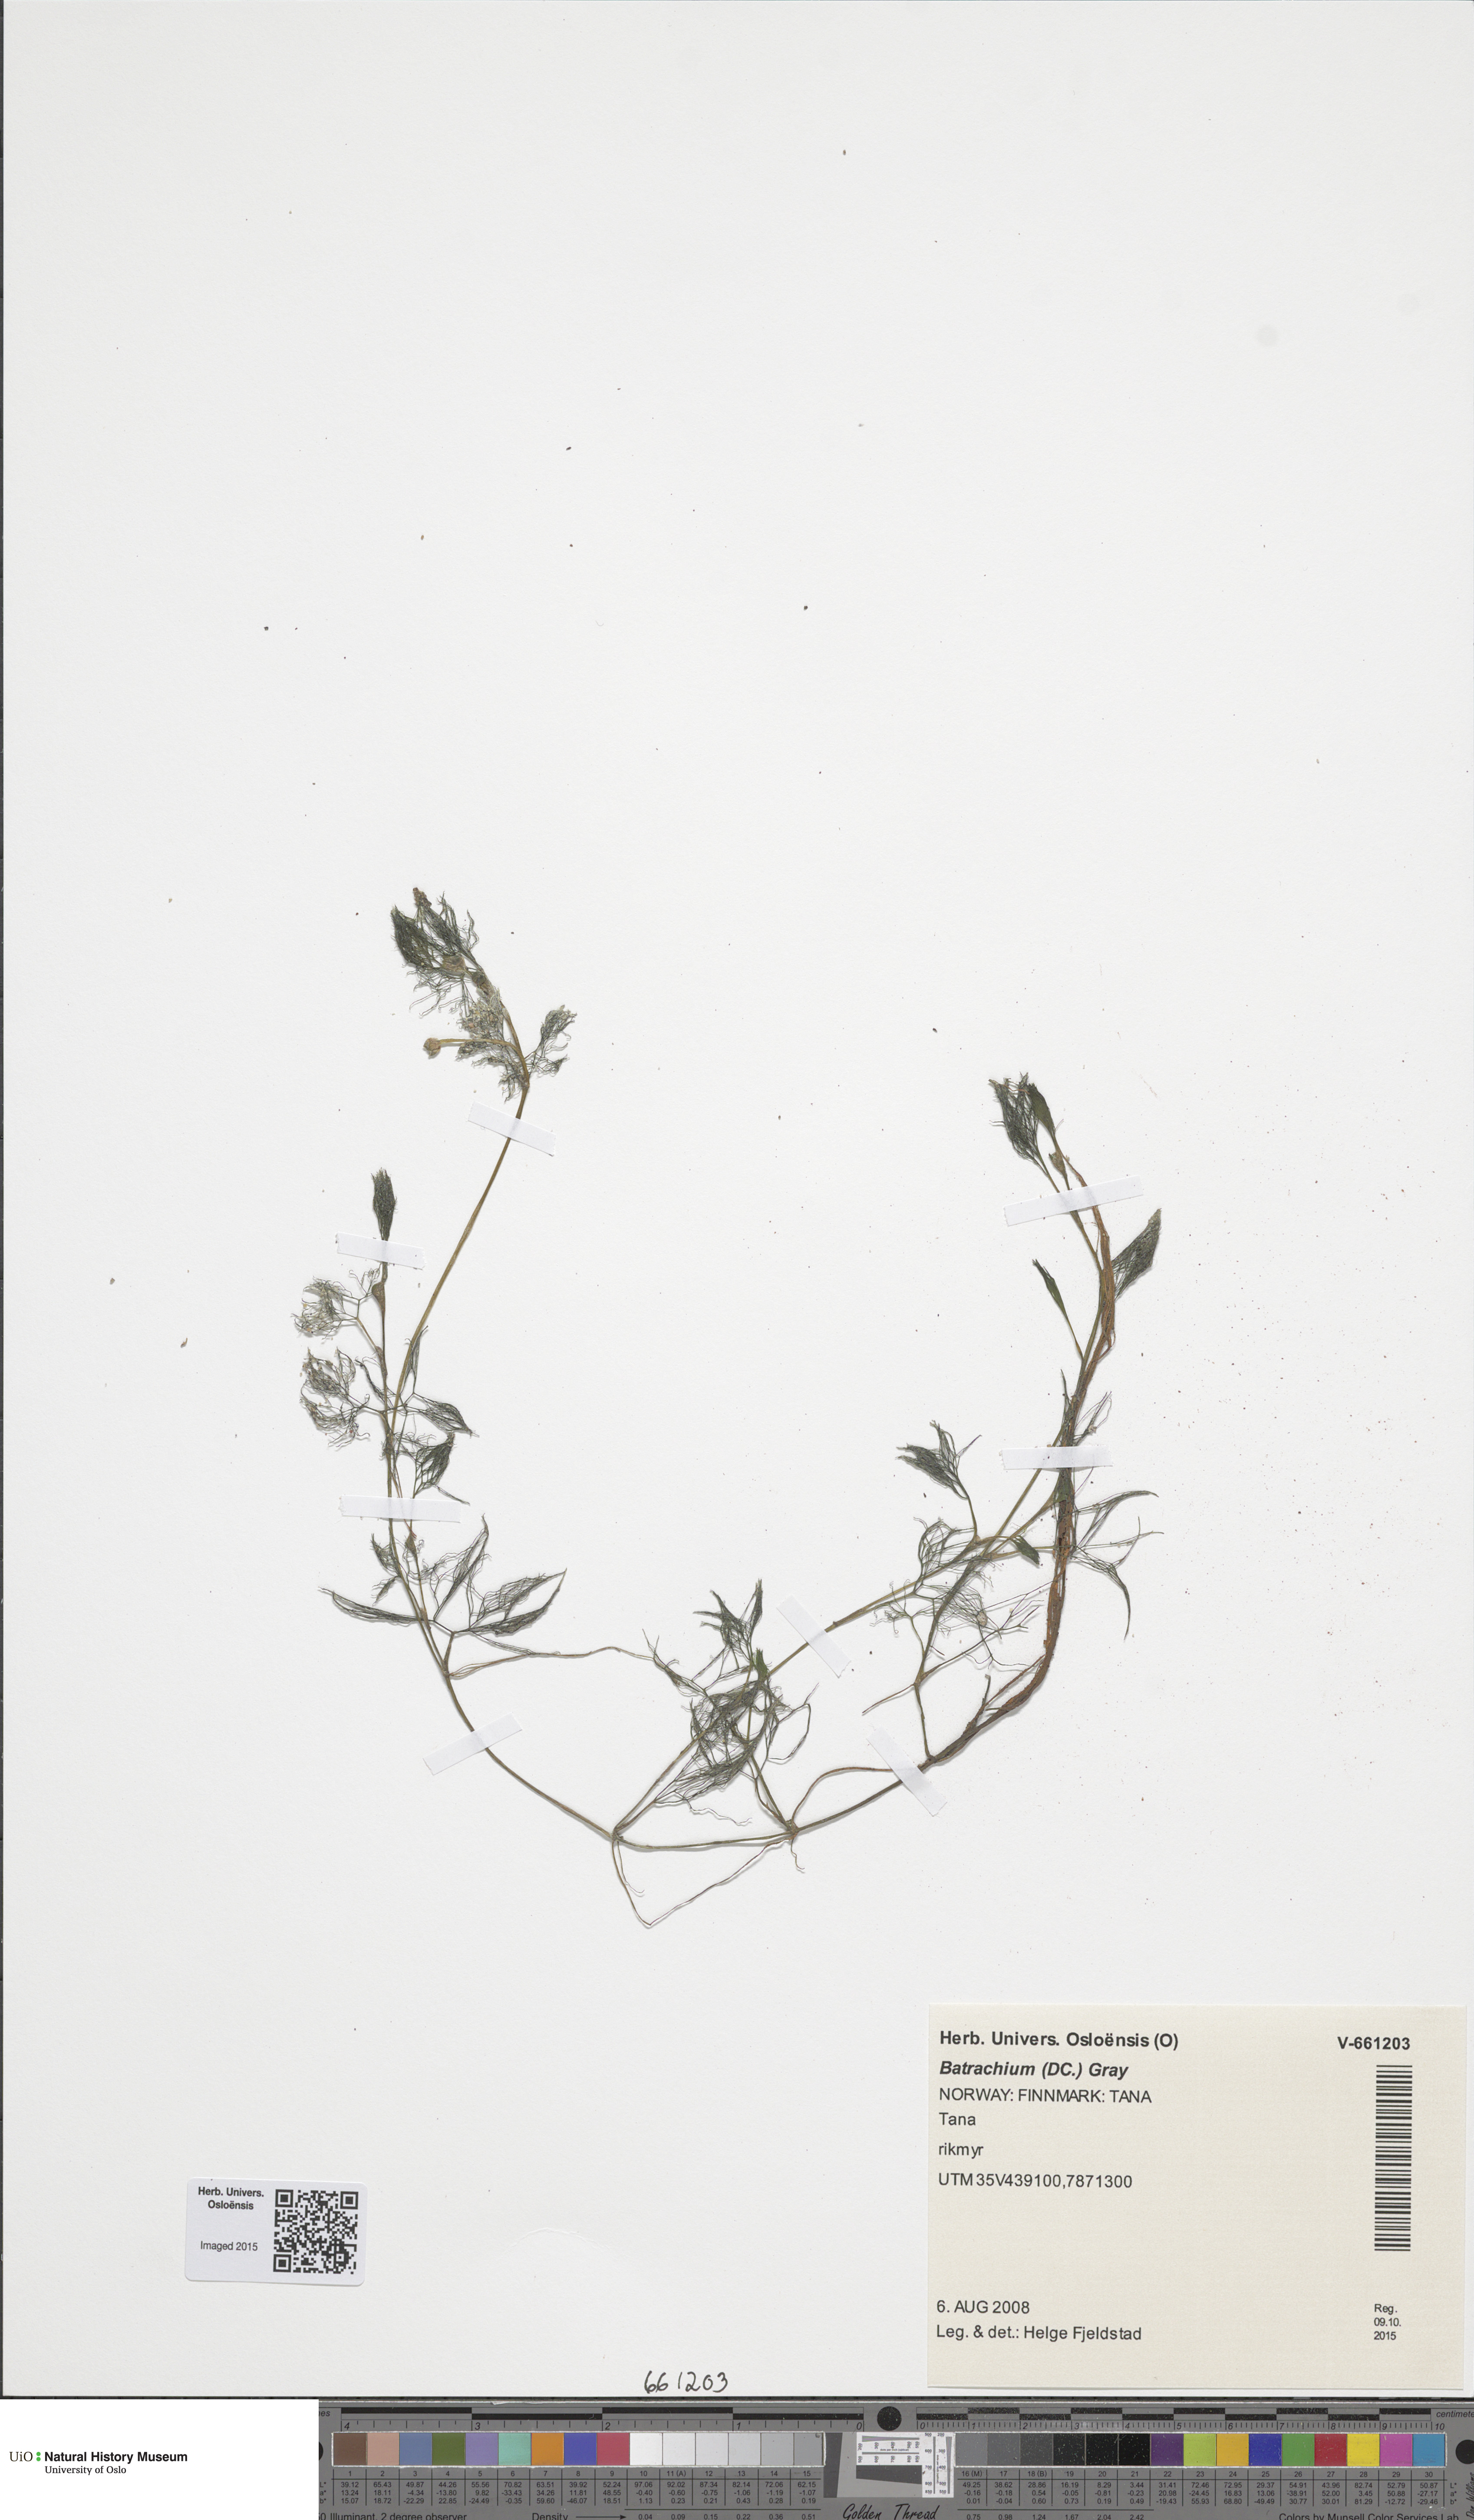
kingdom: Plantae
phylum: Tracheophyta
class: Magnoliopsida
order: Ranunculales
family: Ranunculaceae
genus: Ranunculus
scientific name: Ranunculus confervoides
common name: Delicate buttercup
